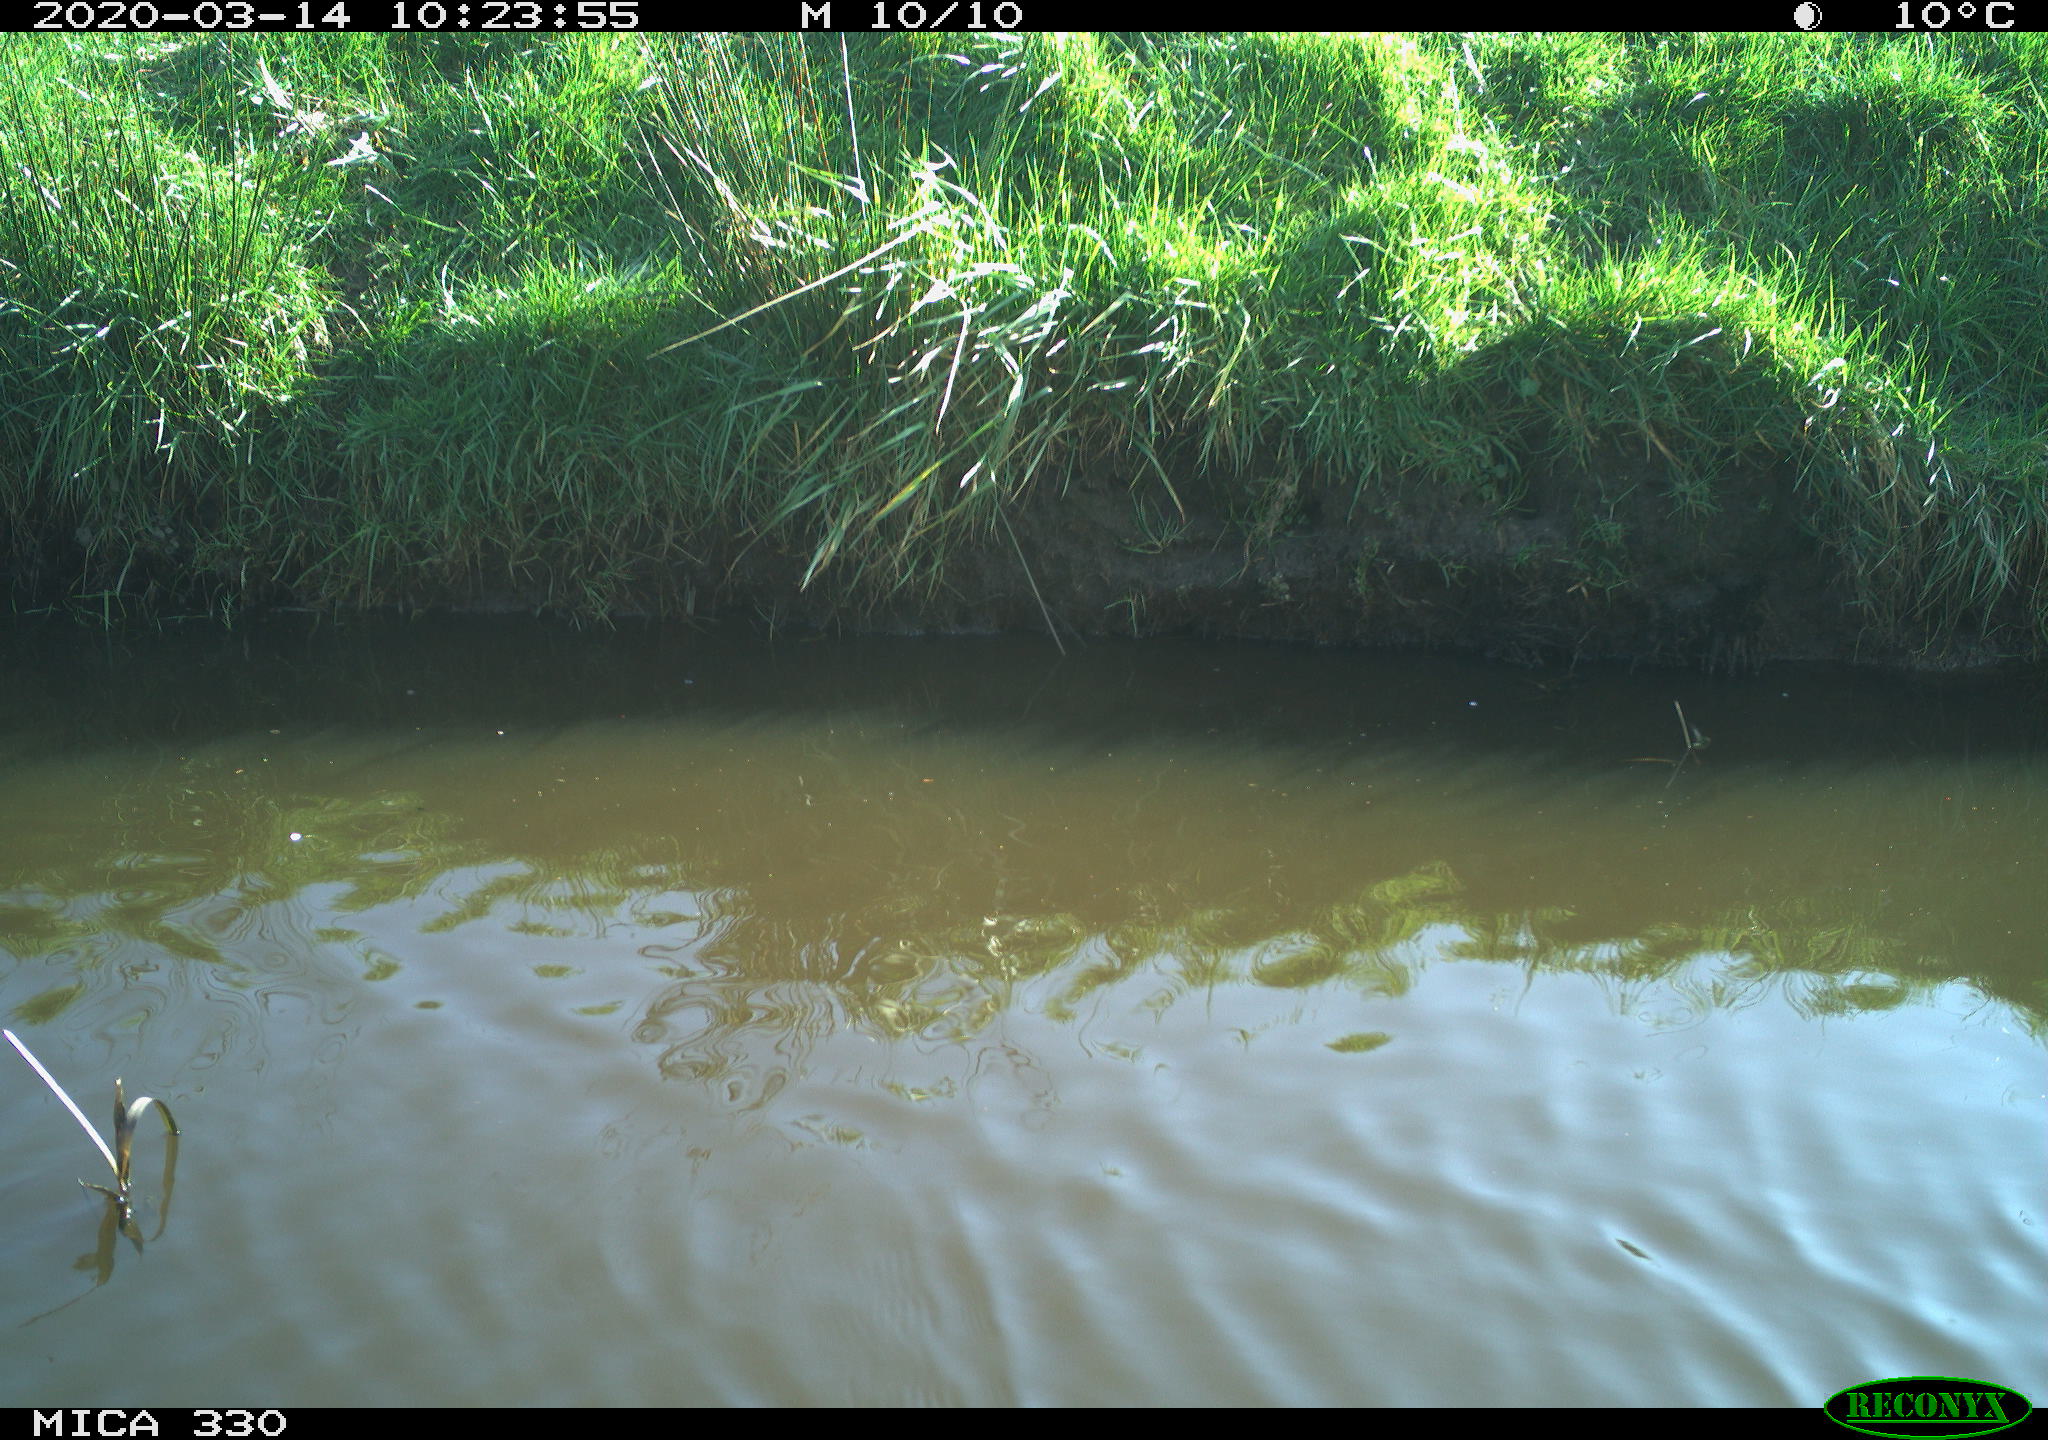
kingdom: Animalia
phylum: Chordata
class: Aves
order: Gruiformes
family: Rallidae
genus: Gallinula
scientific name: Gallinula chloropus
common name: Common moorhen
